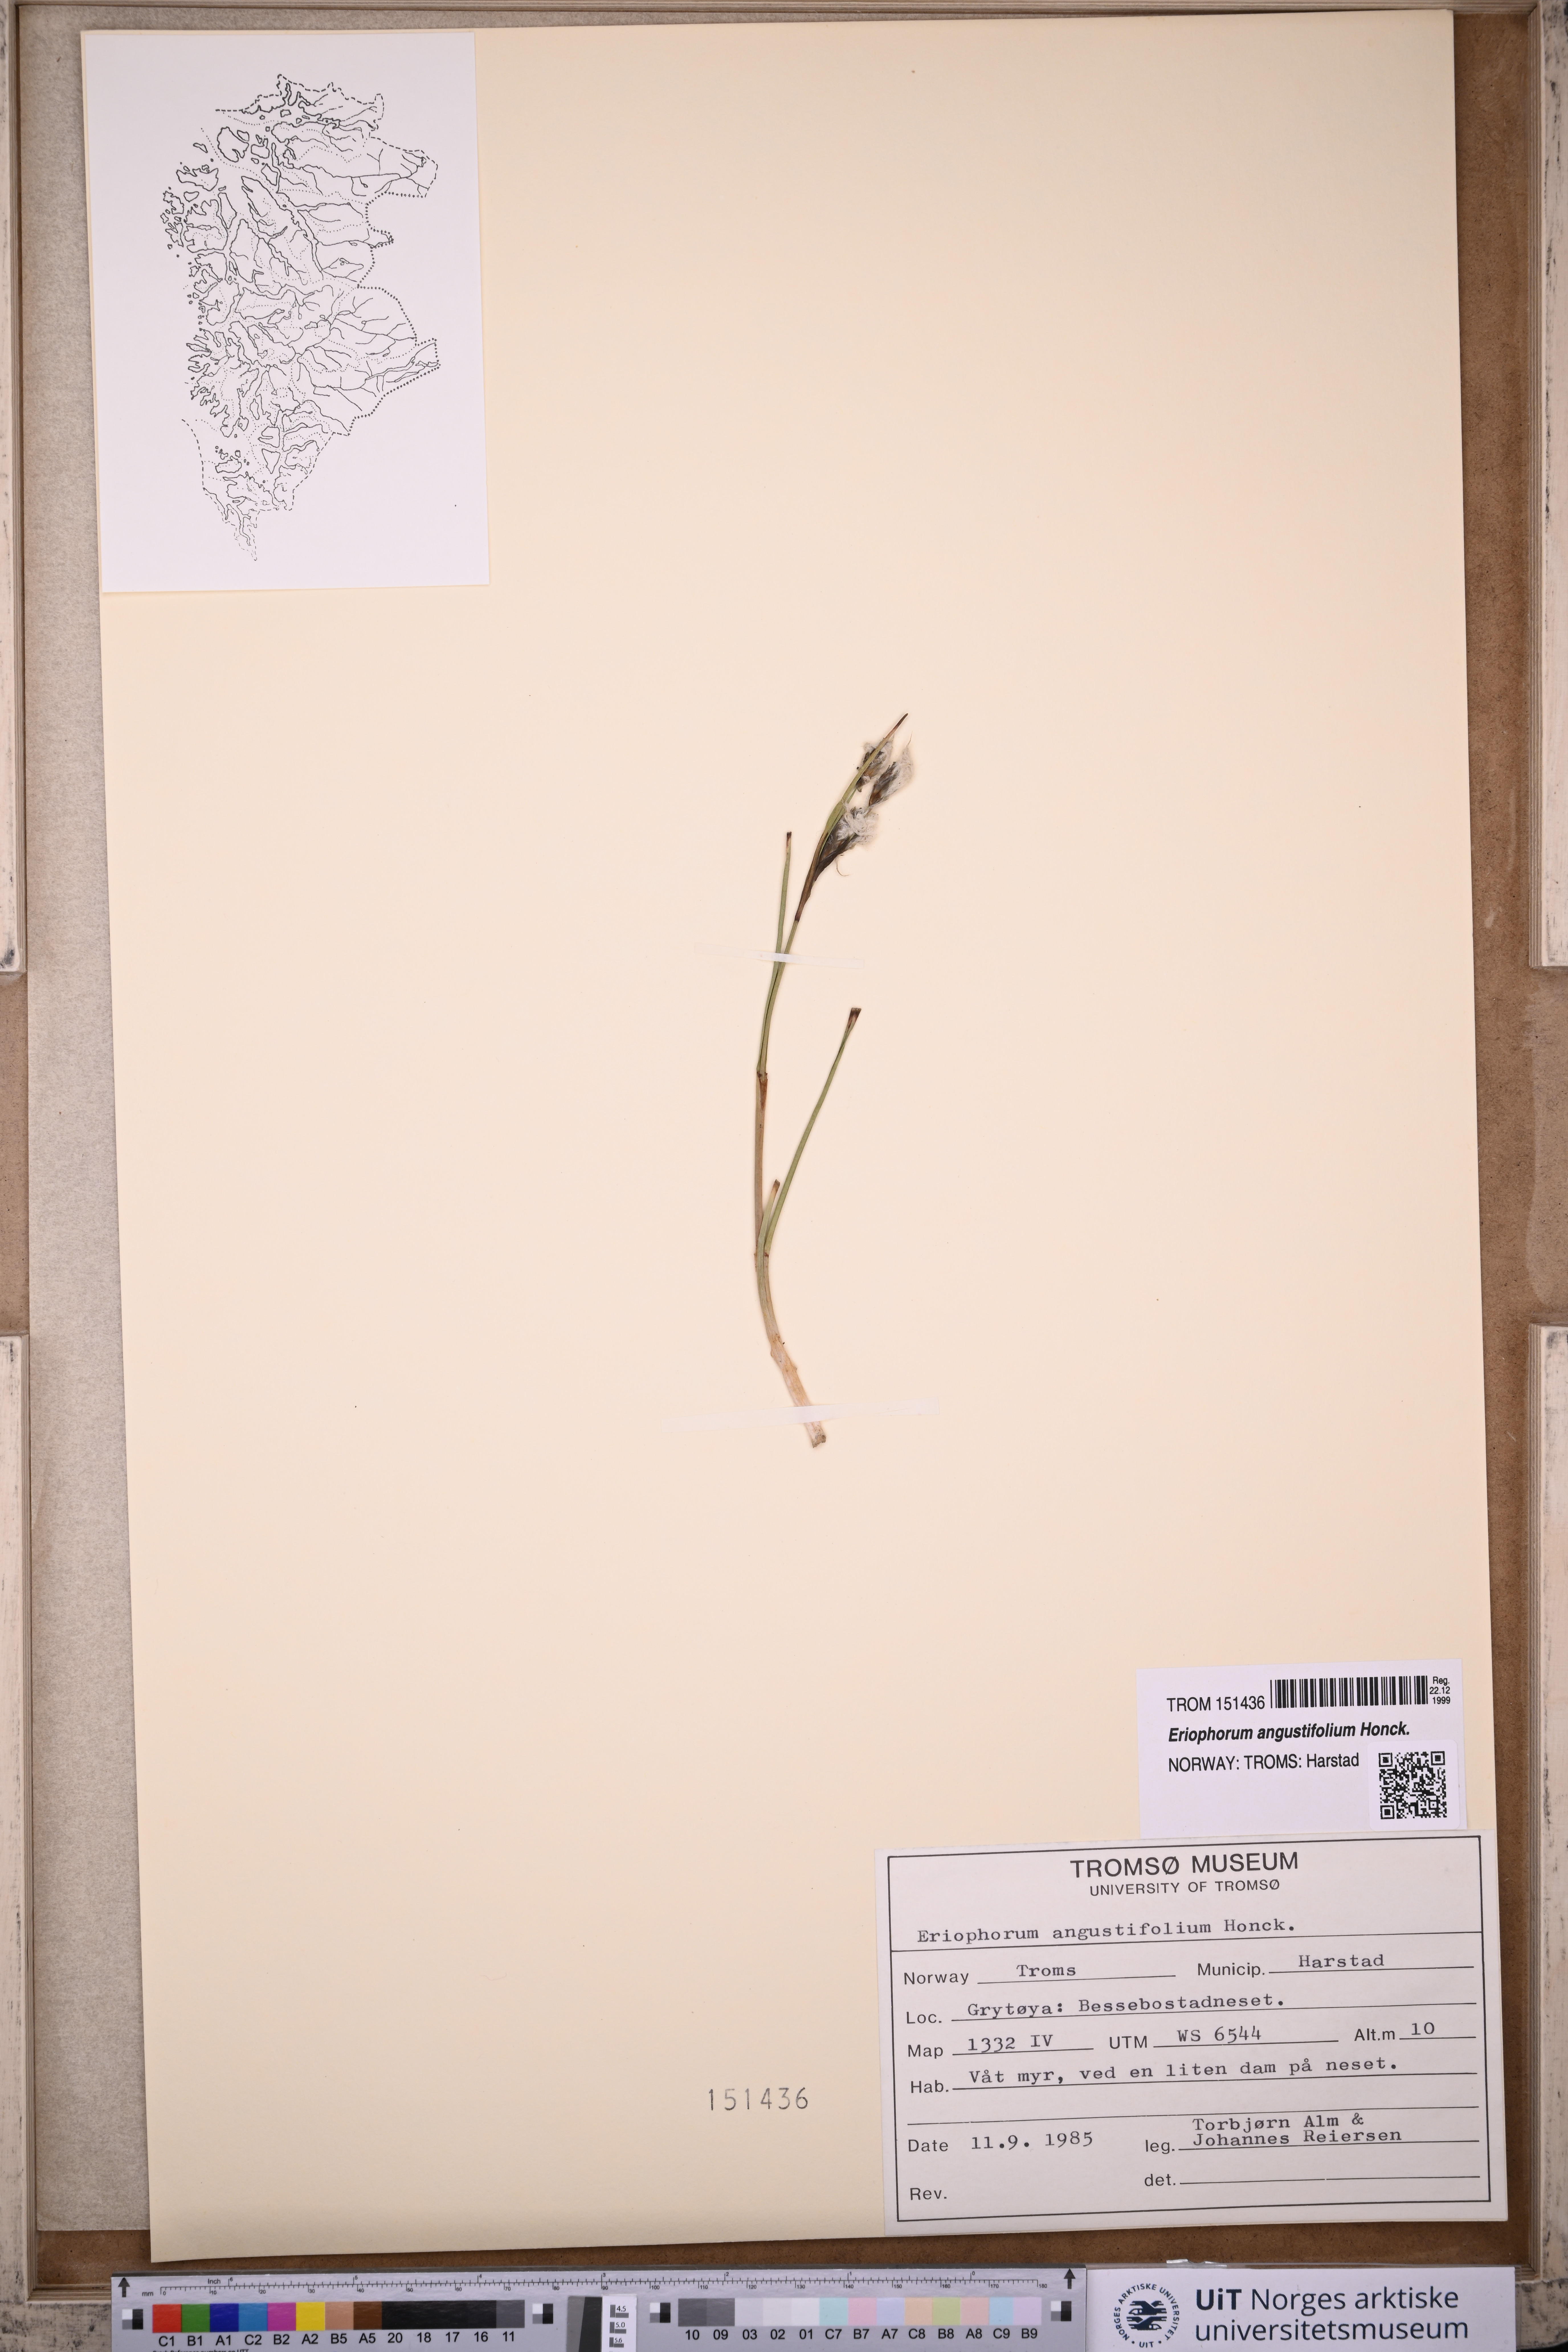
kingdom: Plantae
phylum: Tracheophyta
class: Liliopsida
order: Poales
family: Cyperaceae
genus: Eriophorum
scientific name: Eriophorum angustifolium
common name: Common cottongrass
